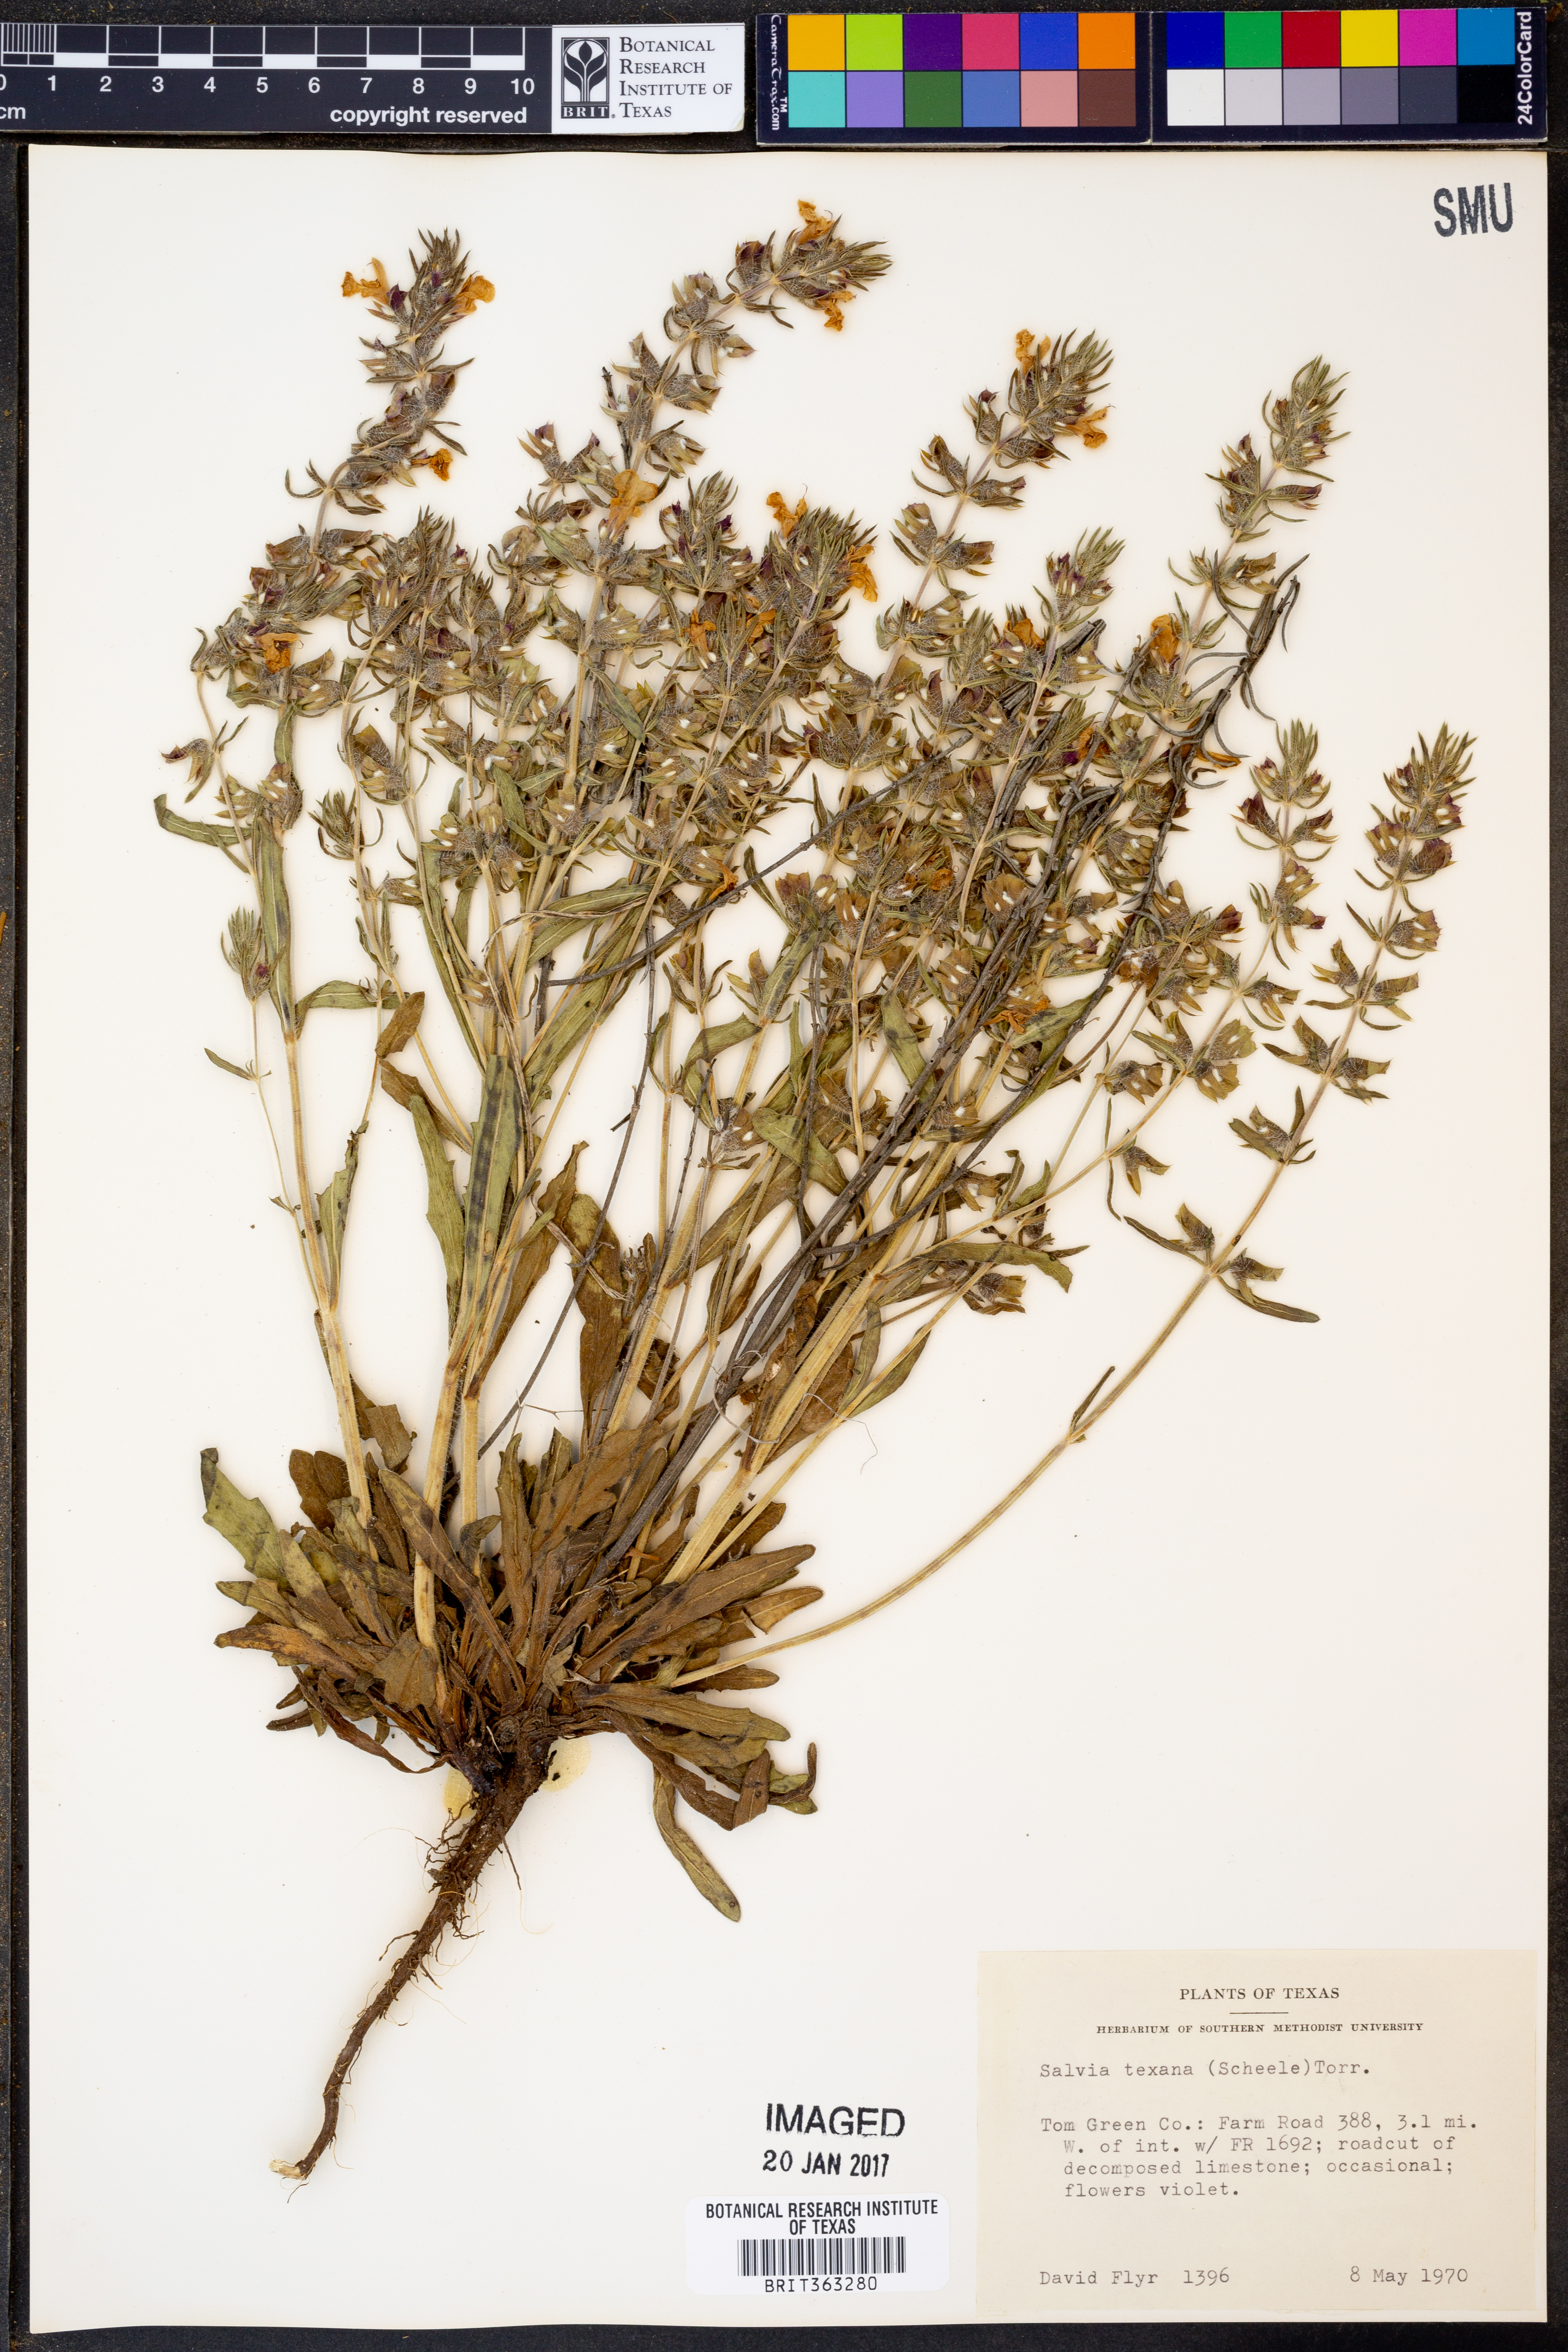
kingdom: Plantae
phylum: Tracheophyta
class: Magnoliopsida
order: Lamiales
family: Lamiaceae
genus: Salvia
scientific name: Salvia texana
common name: Texas sage
